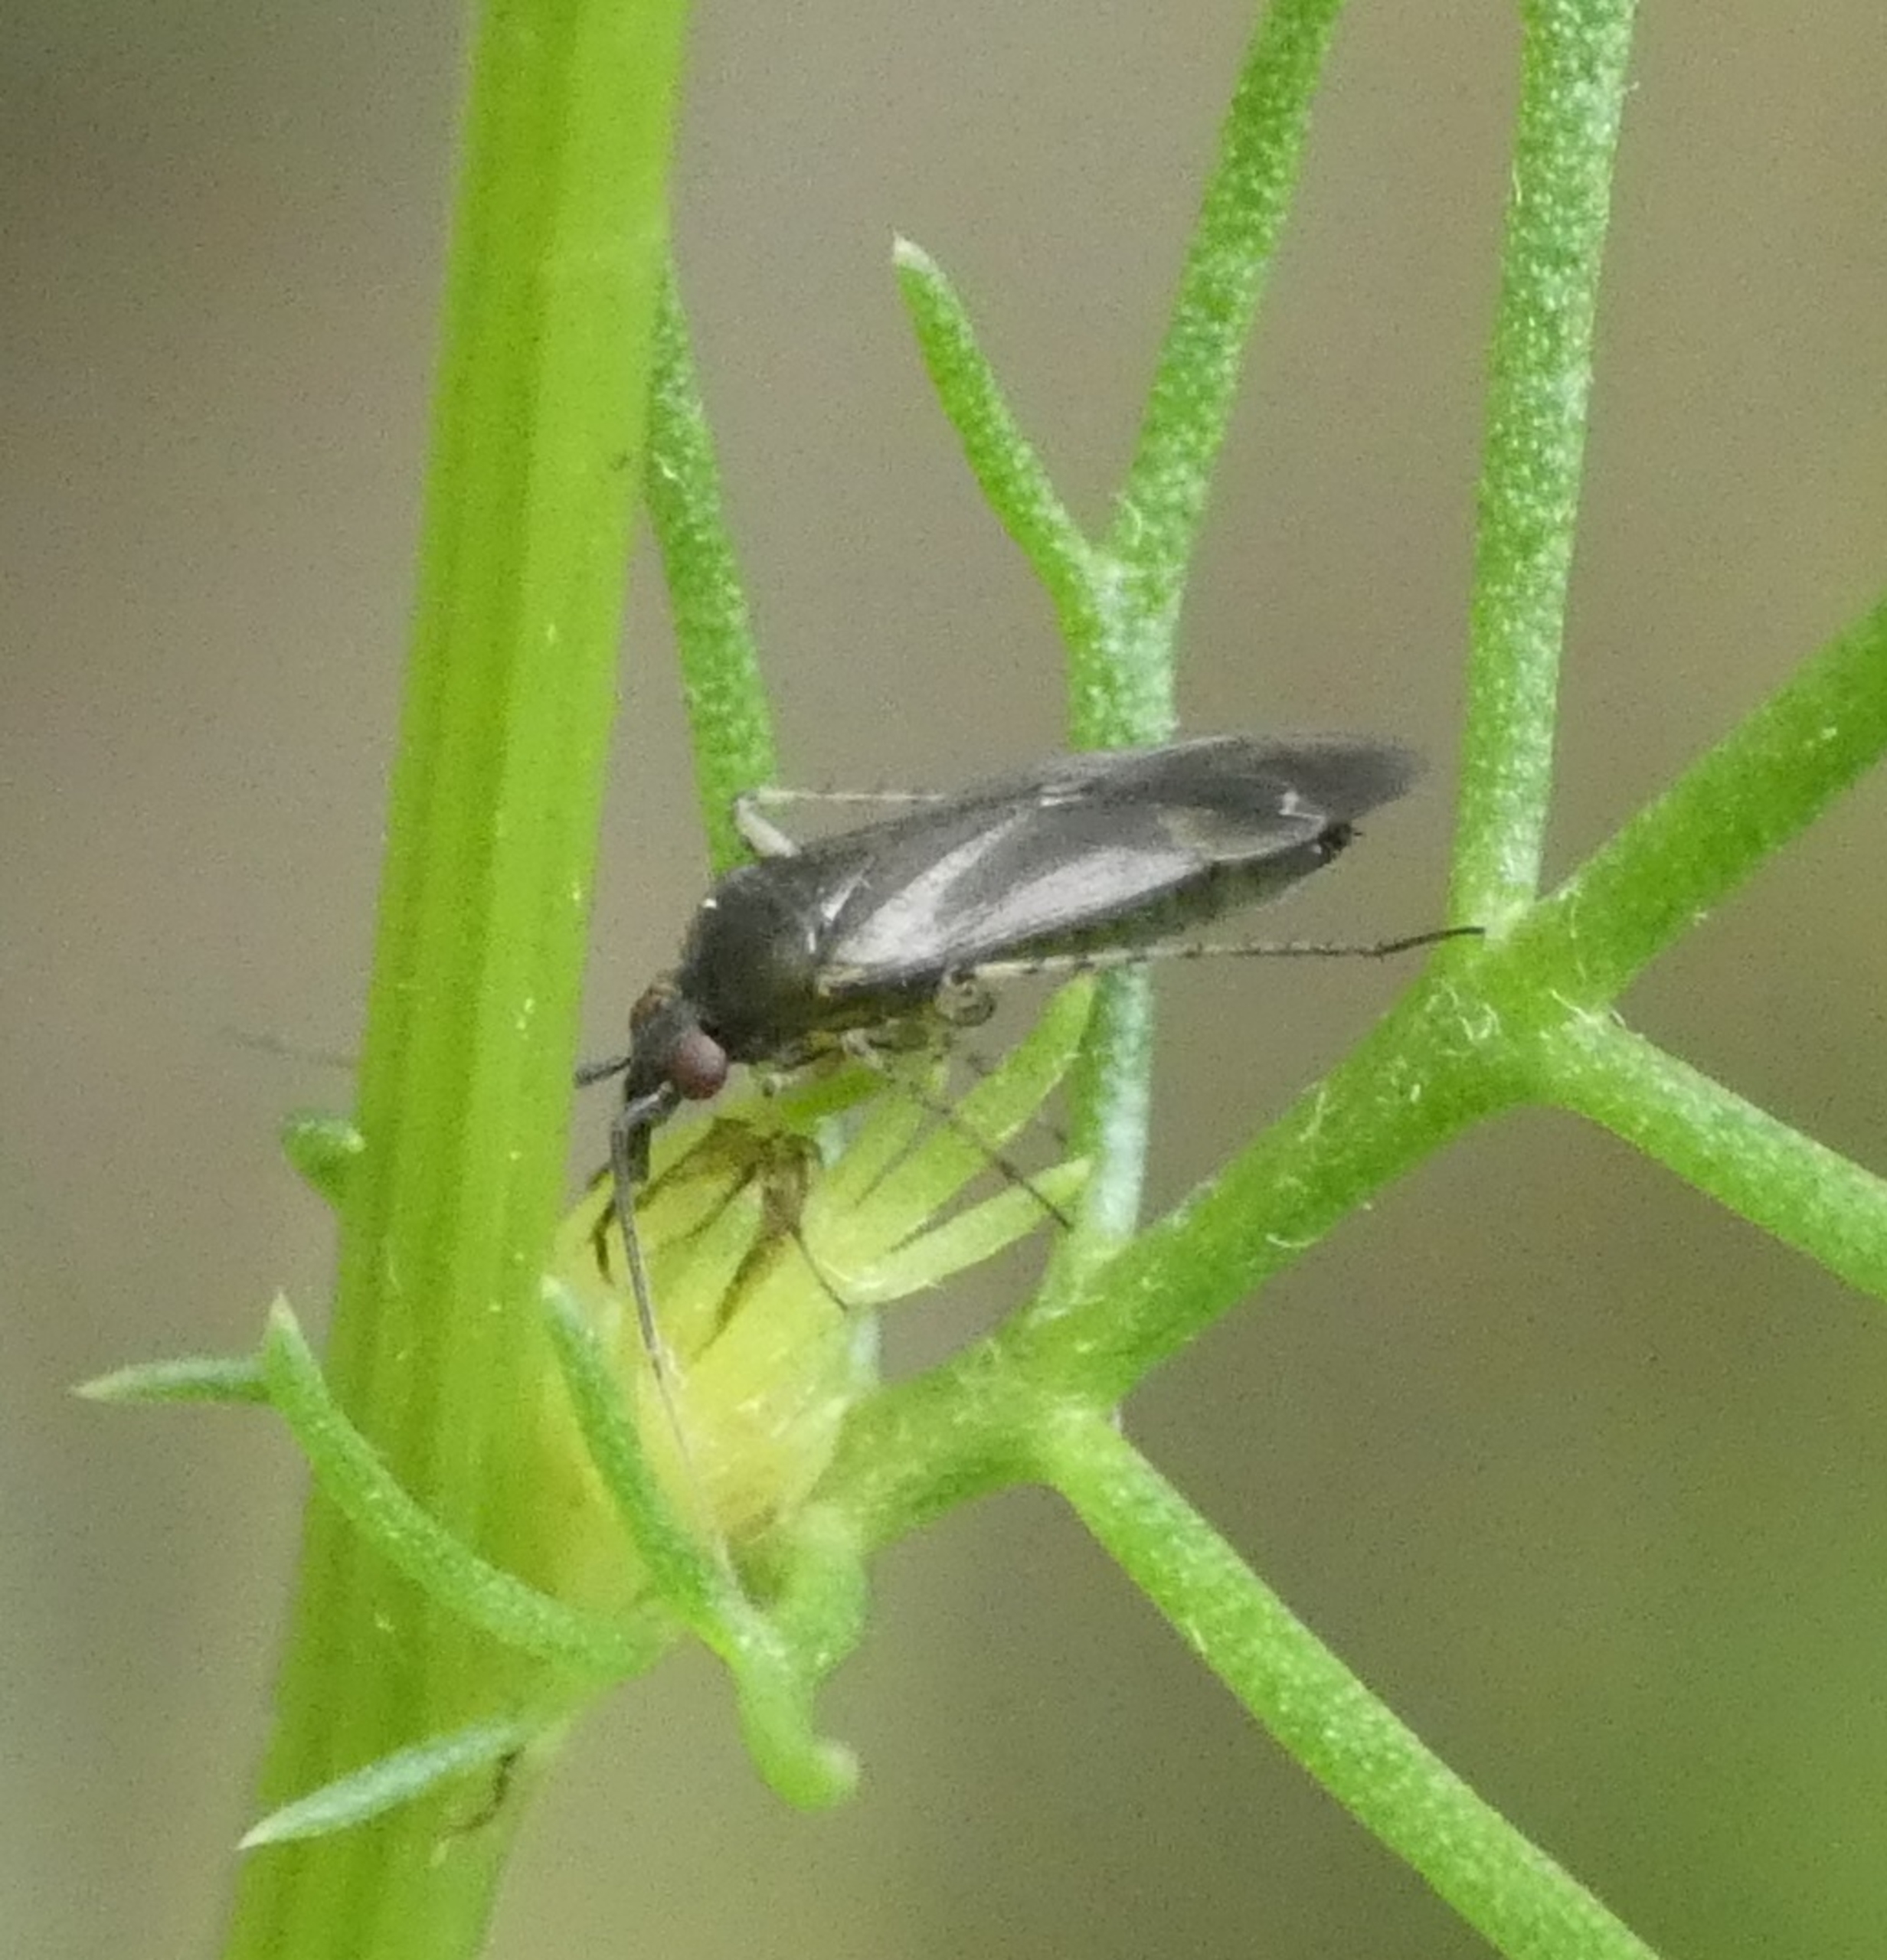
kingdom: Animalia
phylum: Arthropoda
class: Insecta
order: Hemiptera
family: Miridae
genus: Plagiognathus
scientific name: Plagiognathus arbustorum
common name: Almindelig nældeblomstertæge
